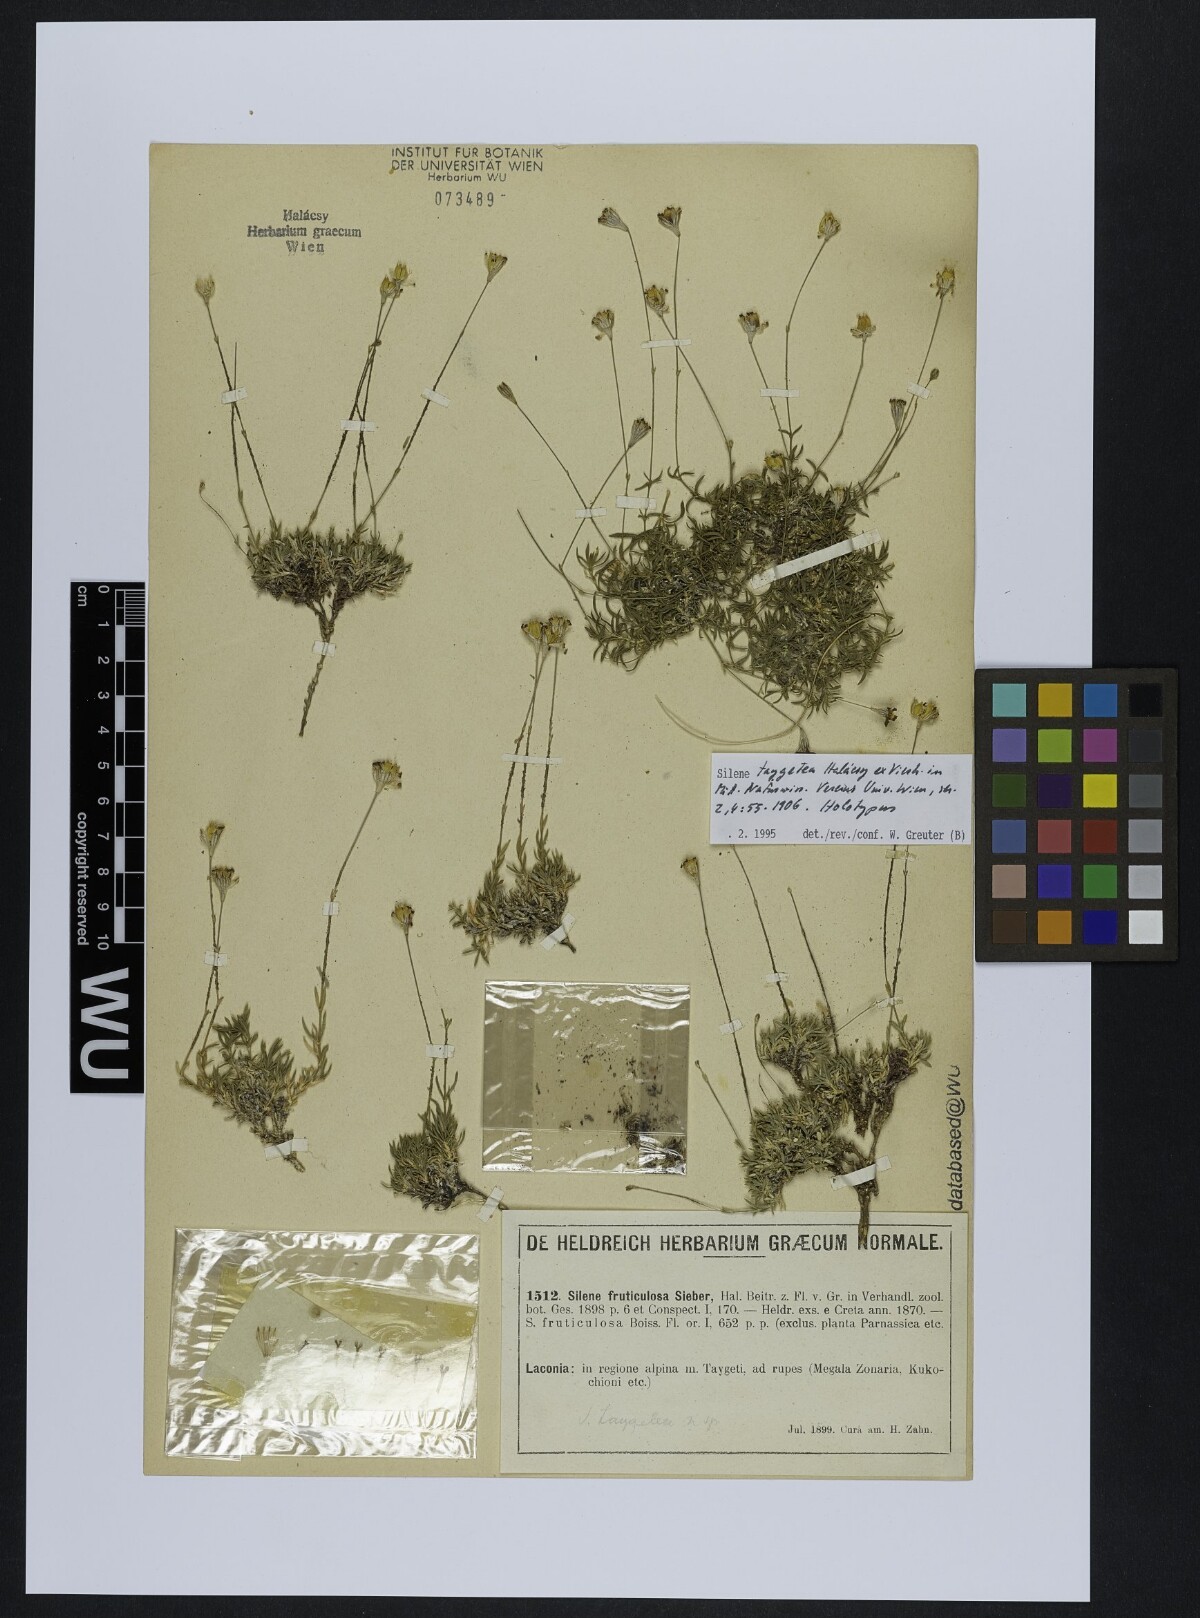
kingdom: Plantae
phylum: Tracheophyta
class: Magnoliopsida
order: Caryophyllales
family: Caryophyllaceae
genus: Silene
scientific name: Silene taygetea
